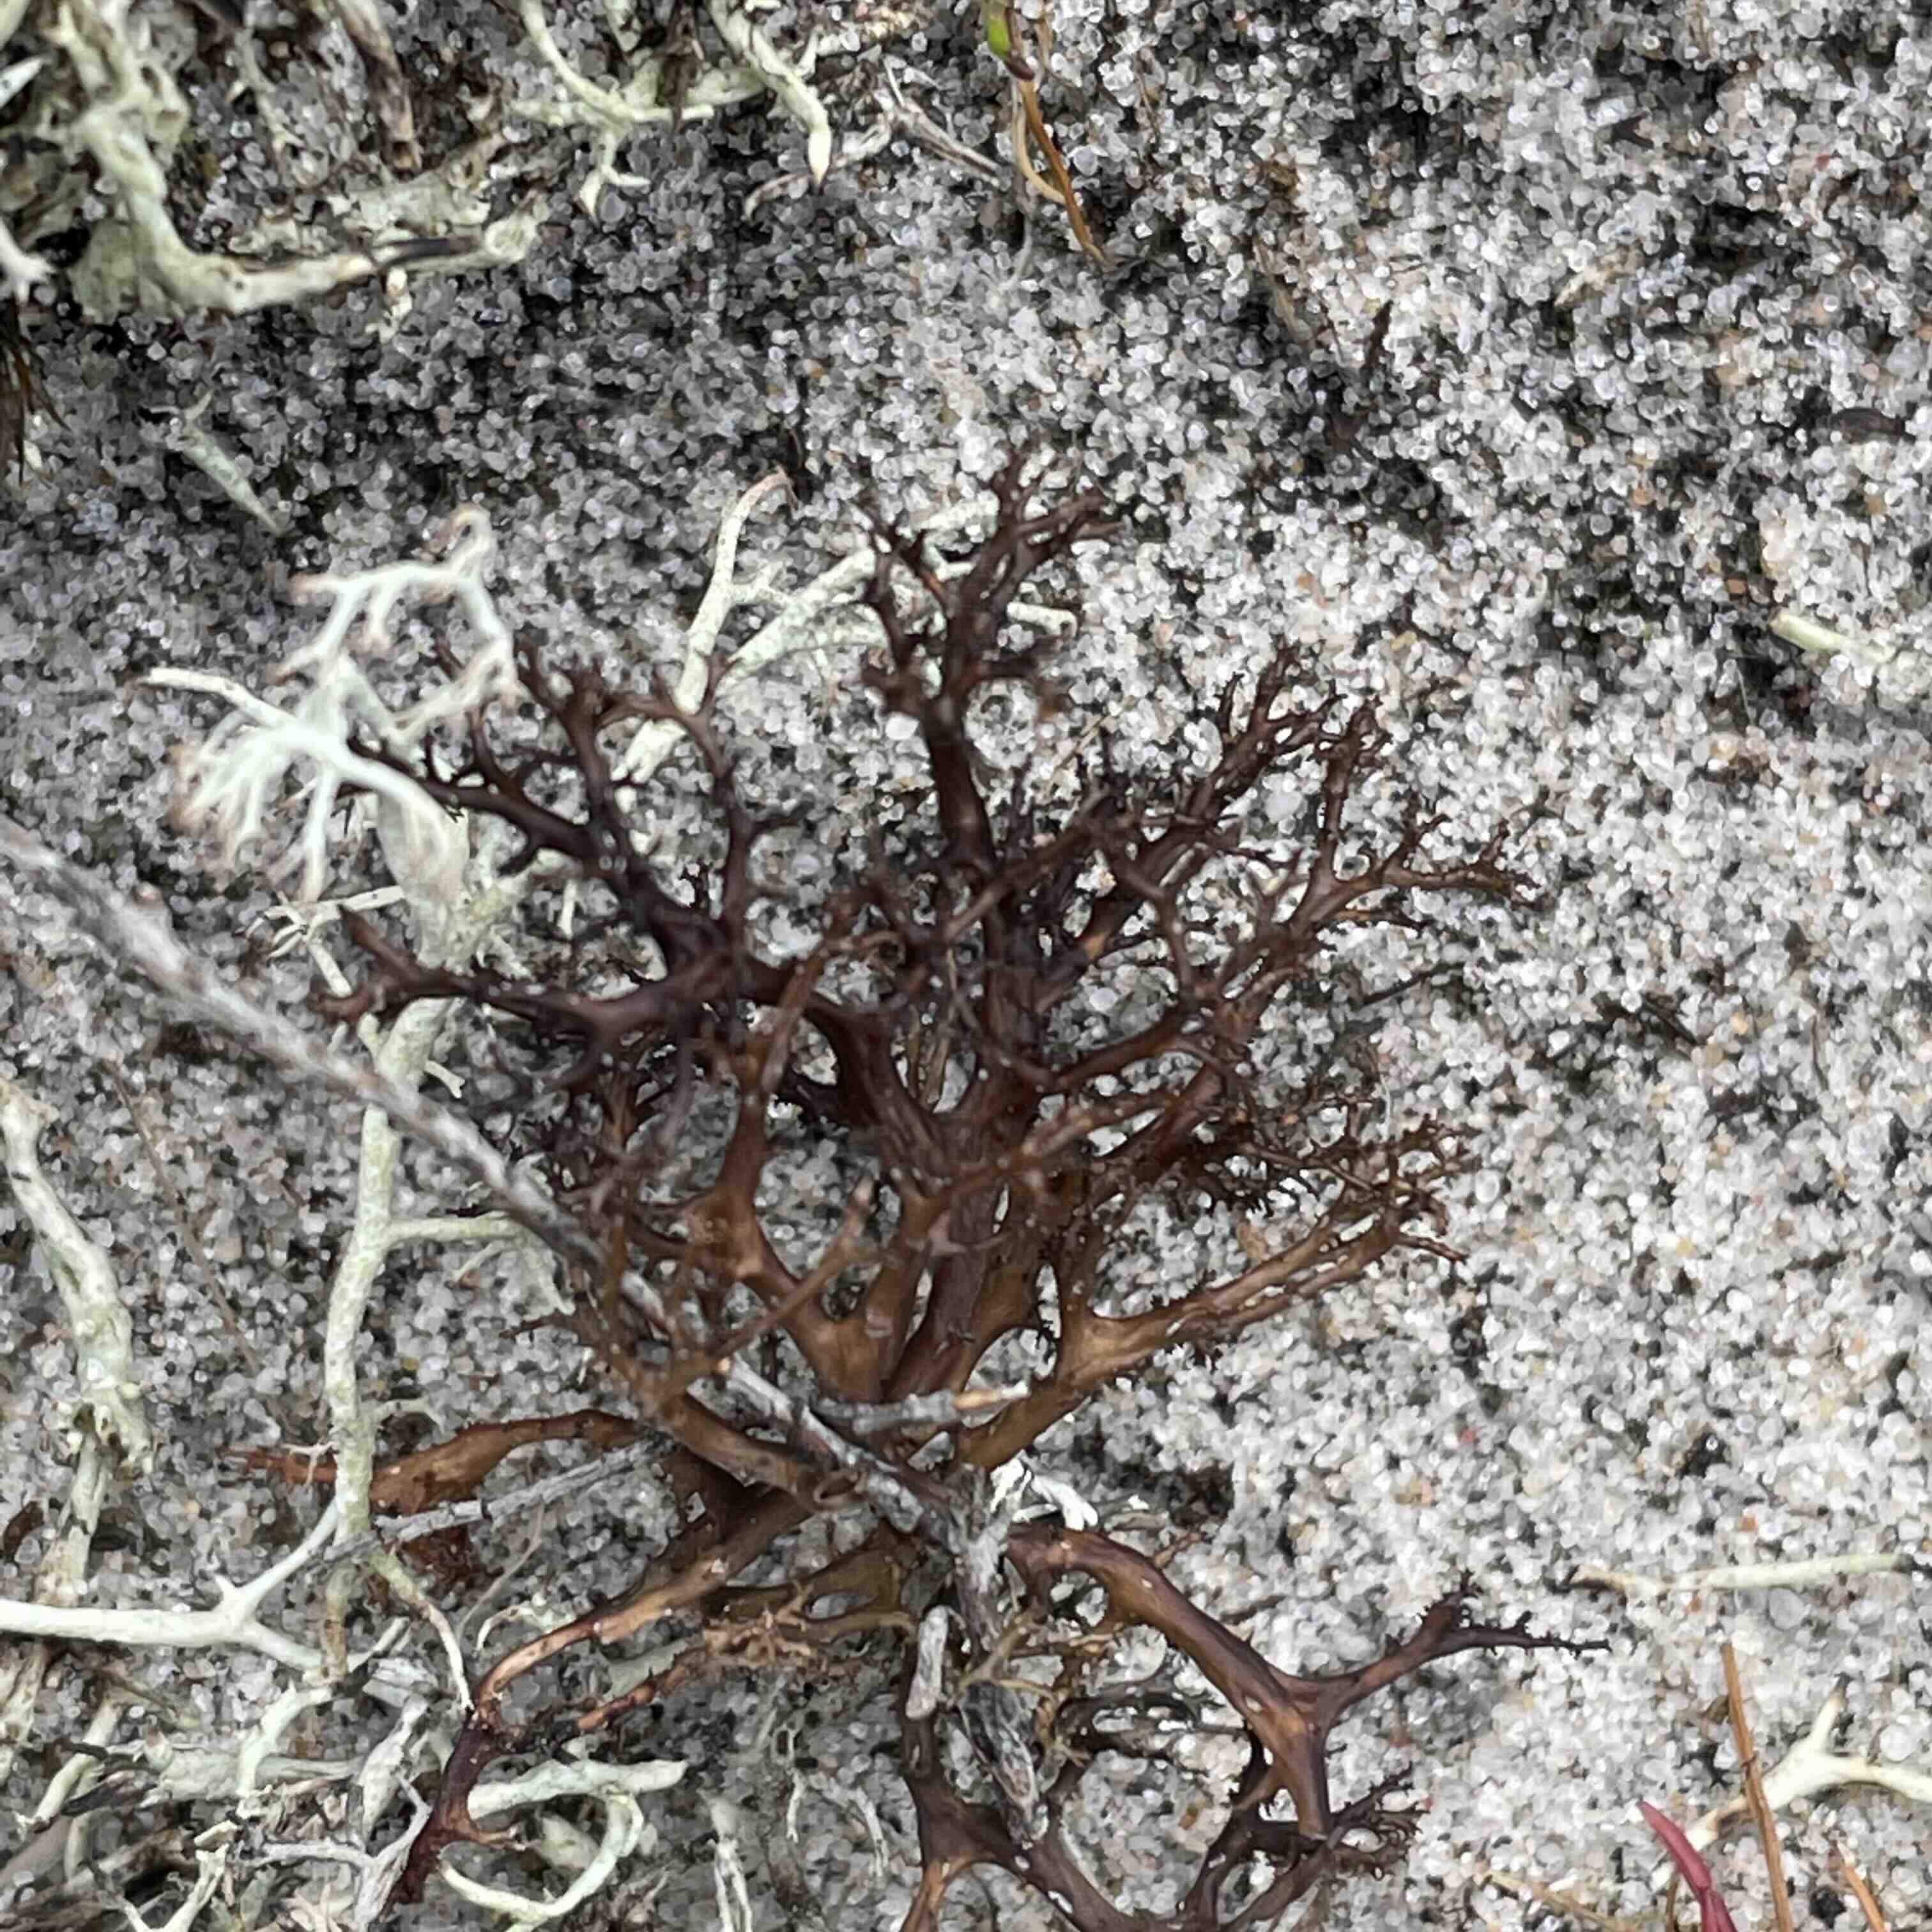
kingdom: Fungi
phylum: Ascomycota
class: Lecanoromycetes
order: Lecanorales
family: Parmeliaceae
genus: Cetraria
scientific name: Cetraria aculeata
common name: grubet tjørnelav
